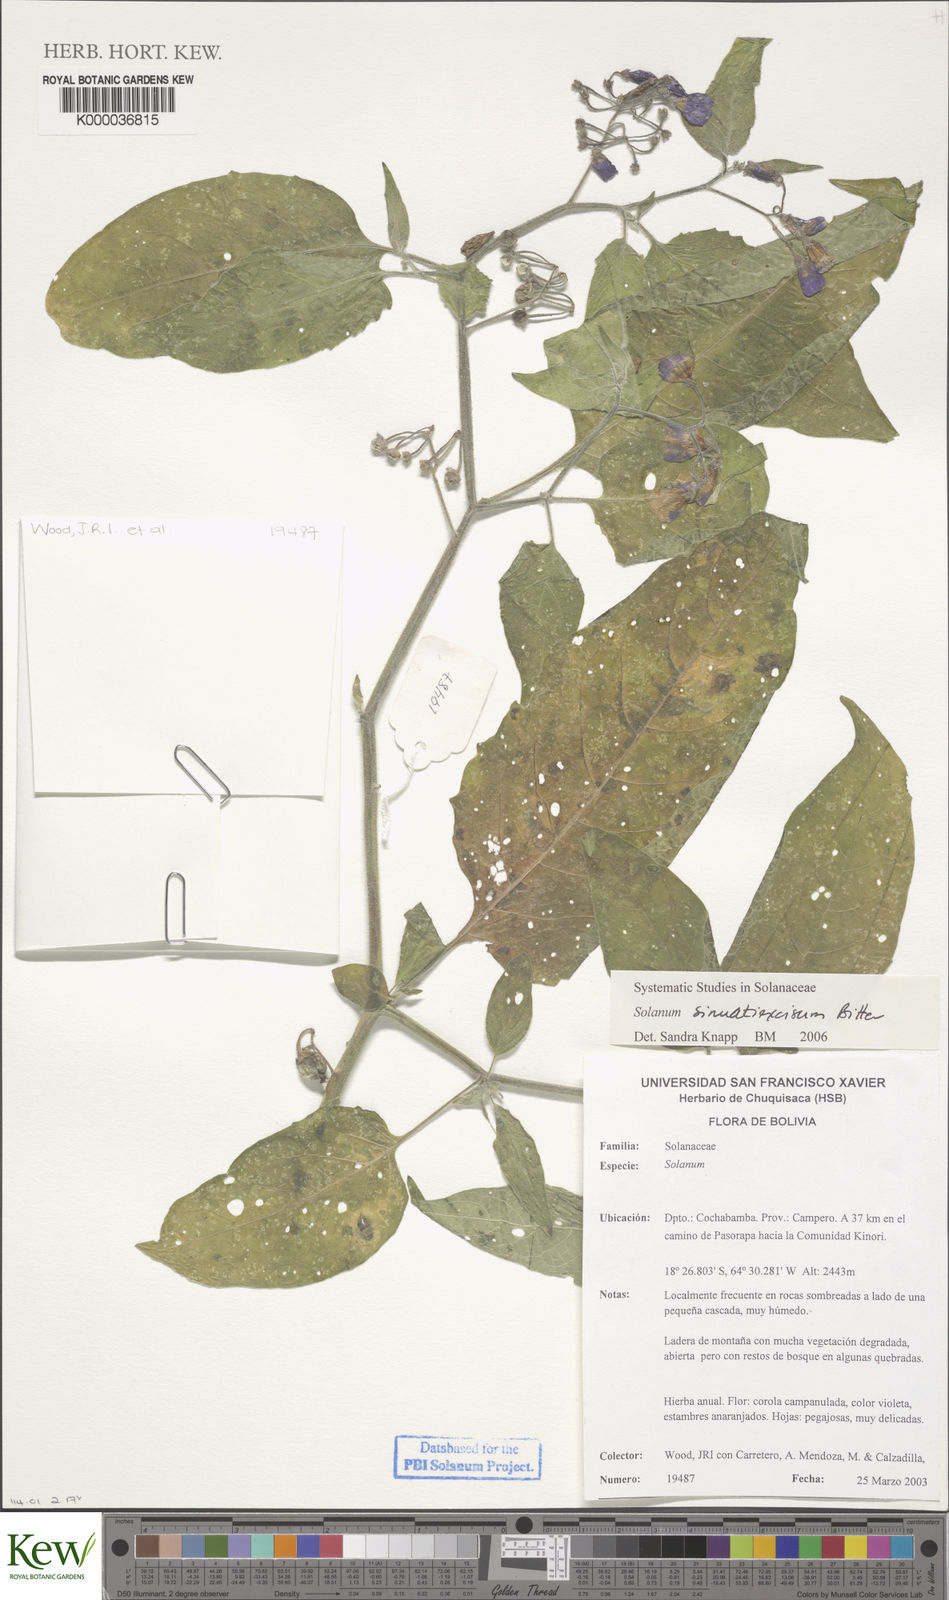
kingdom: Plantae
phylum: Tracheophyta
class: Magnoliopsida
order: Solanales
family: Solanaceae
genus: Solanum
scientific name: Solanum sinuatiexcisum
